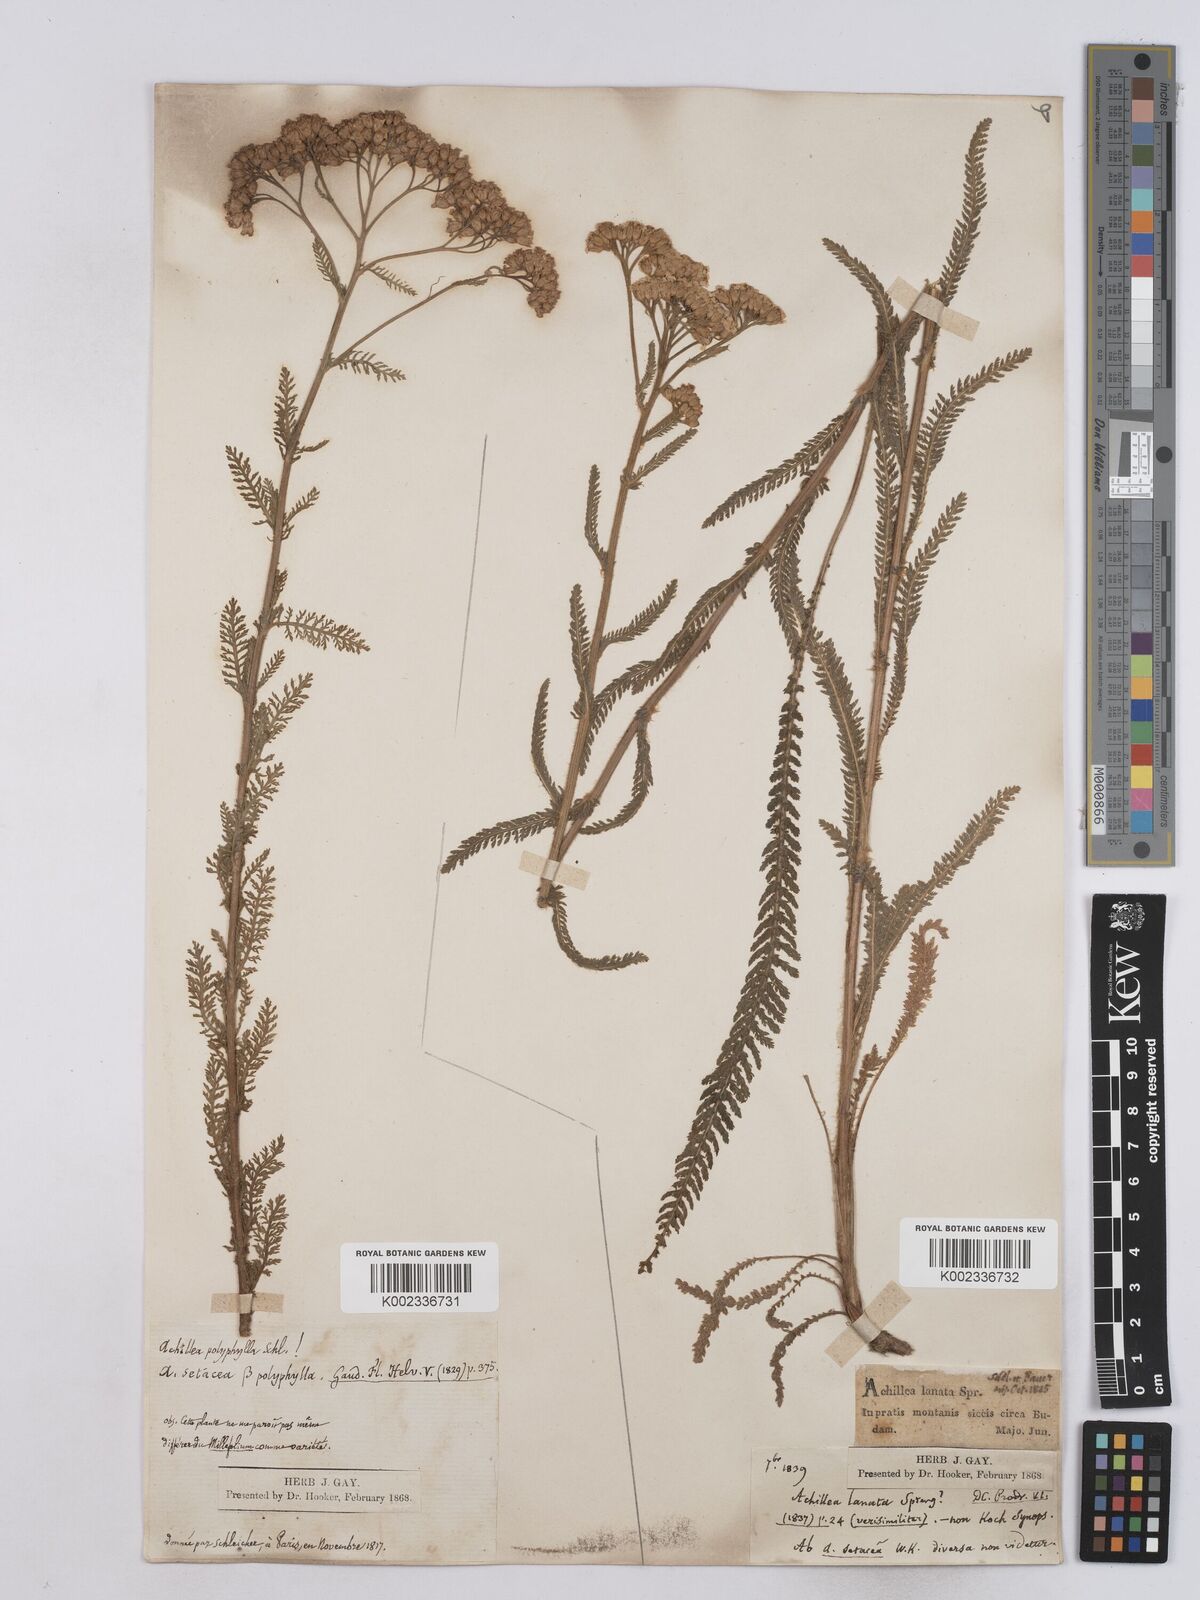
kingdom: Plantae
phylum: Tracheophyta
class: Magnoliopsida
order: Asterales
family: Asteraceae
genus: Achillea
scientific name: Achillea collina
